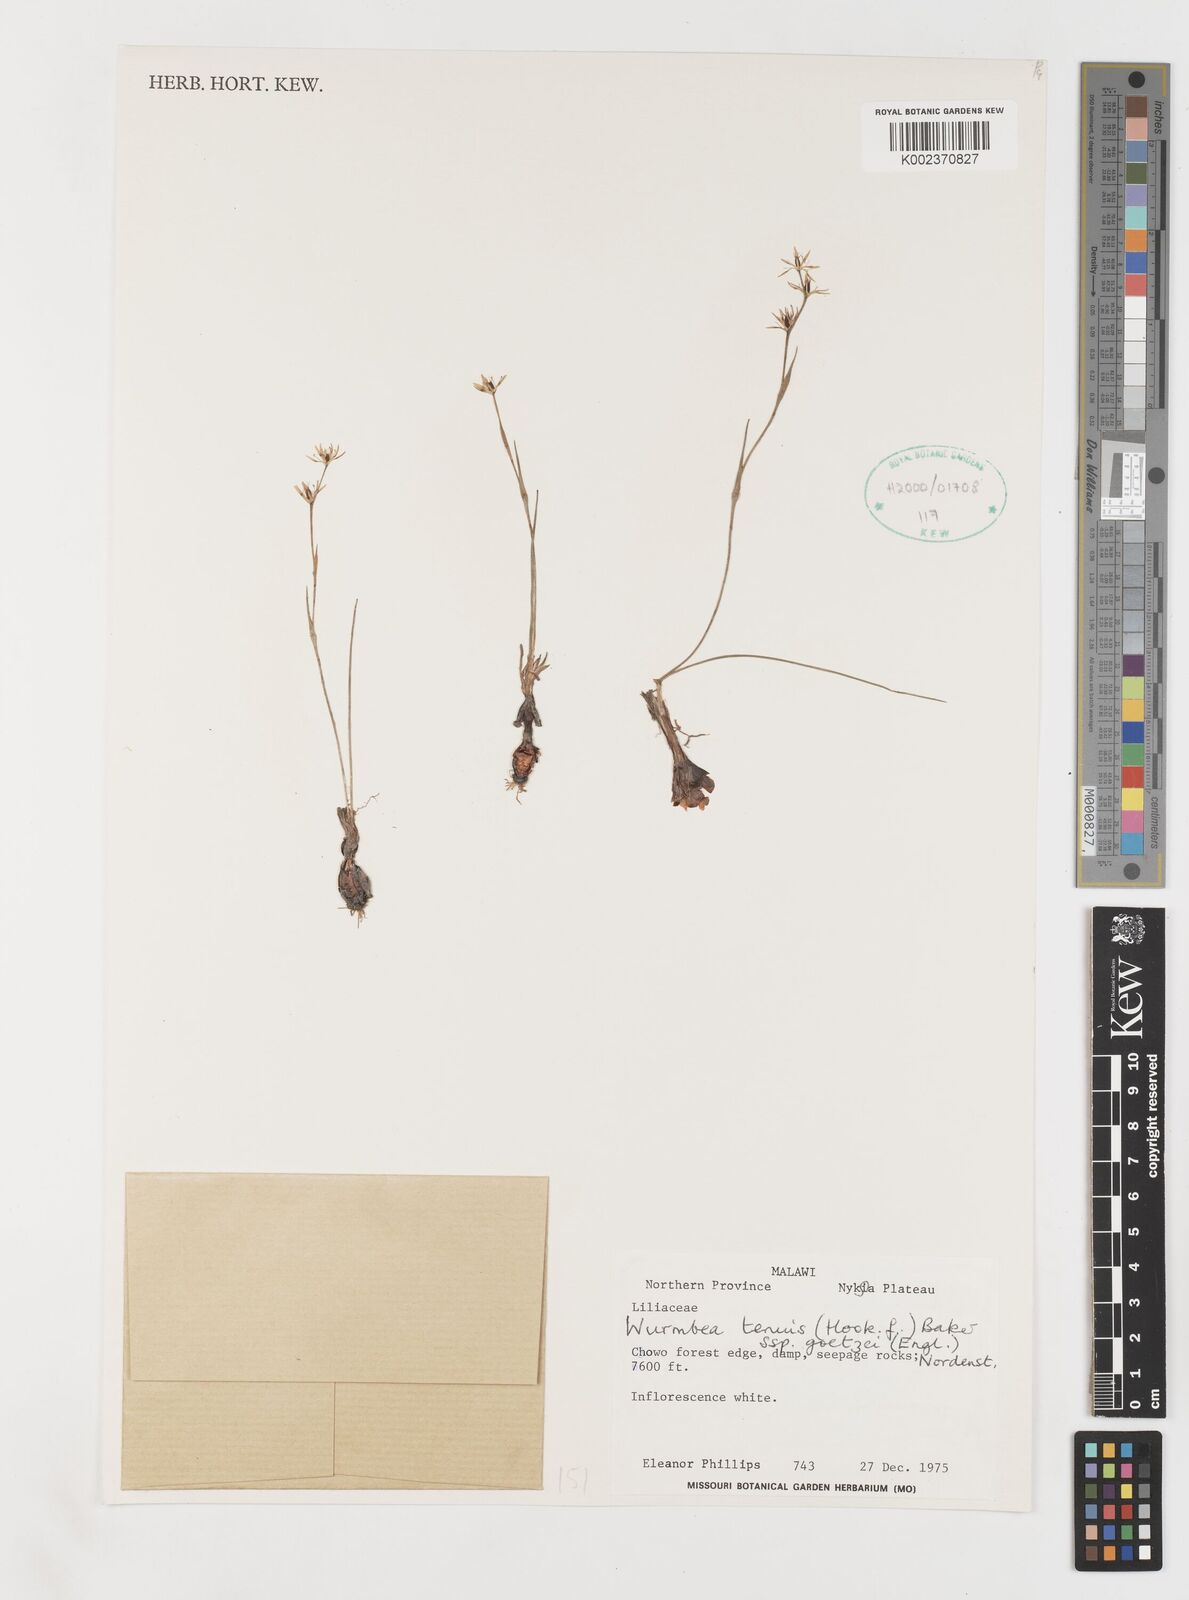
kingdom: Plantae
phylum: Tracheophyta
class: Liliopsida
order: Liliales
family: Colchicaceae
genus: Wurmbea
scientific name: Wurmbea tenuis
